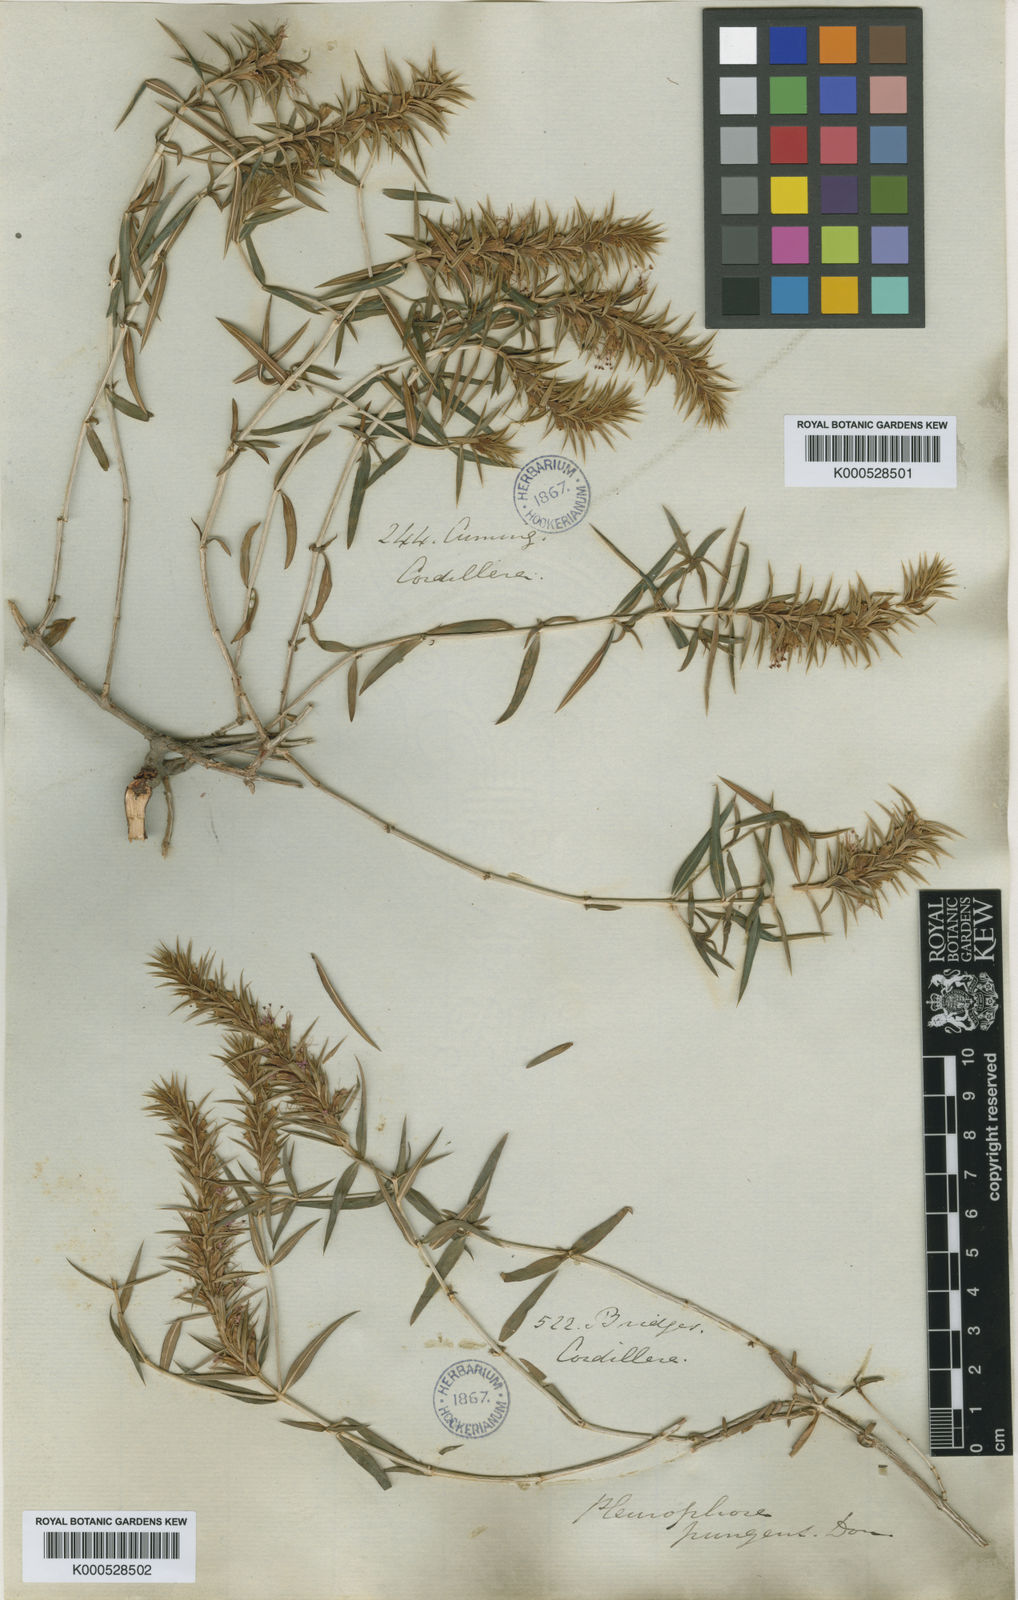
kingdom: Plantae
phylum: Tracheophyta
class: Magnoliopsida
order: Myrtales
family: Lythraceae
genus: Pleurophora
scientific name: Pleurophora pungens
